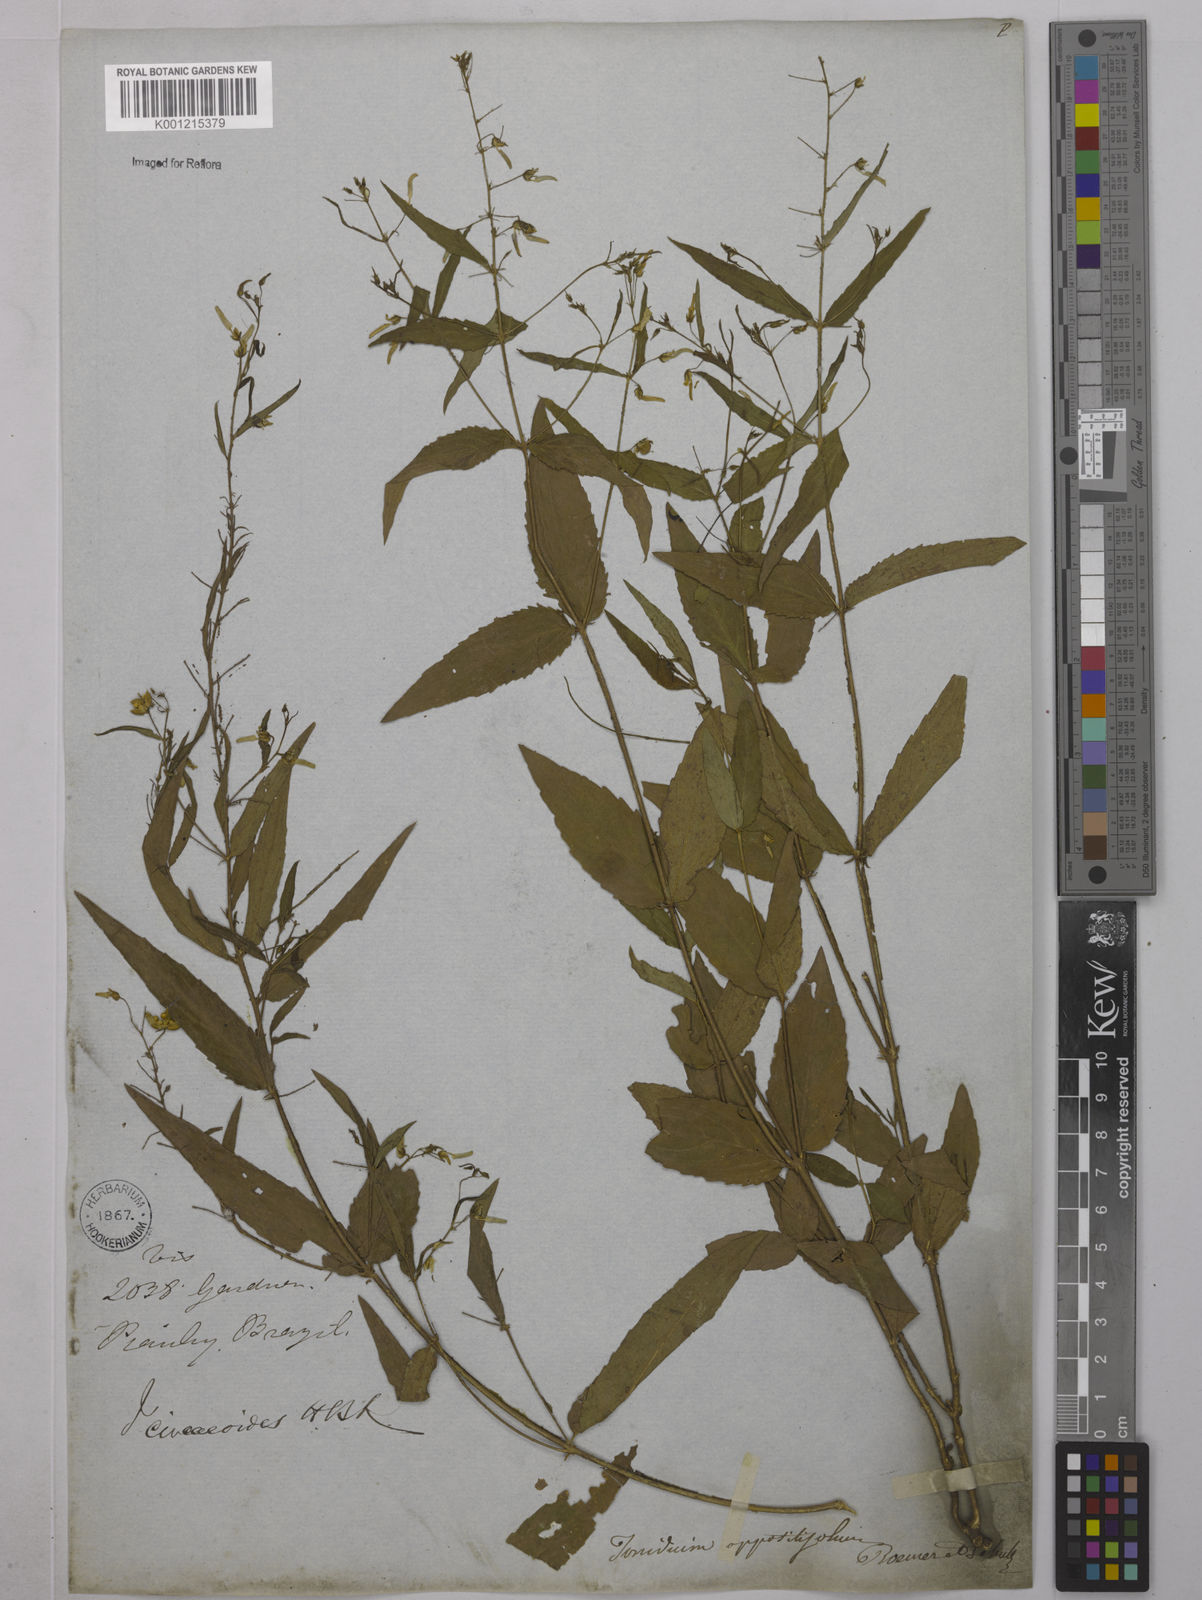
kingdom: Plantae
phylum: Tracheophyta
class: Magnoliopsida
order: Malpighiales
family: Violaceae
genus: Hybanthus
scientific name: Hybanthus
